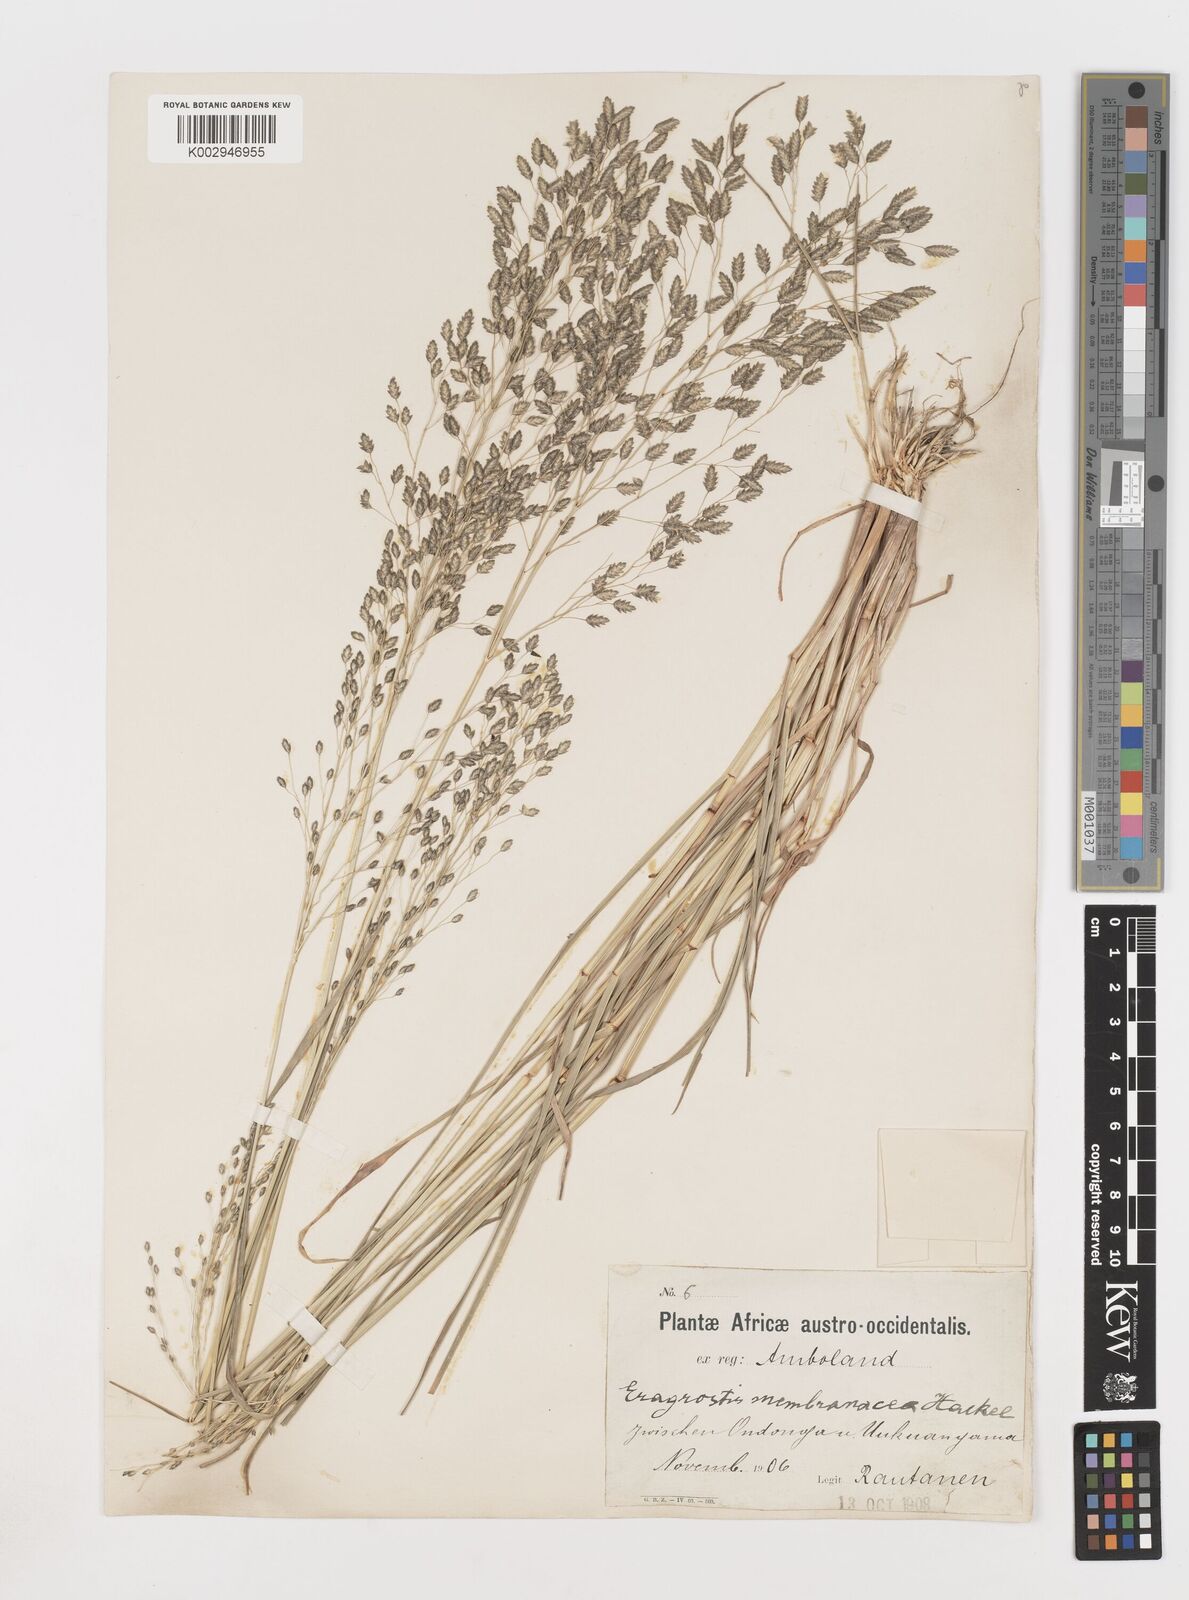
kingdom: Plantae
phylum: Tracheophyta
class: Liliopsida
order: Poales
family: Poaceae
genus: Eragrostis
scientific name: Eragrostis membranacea
